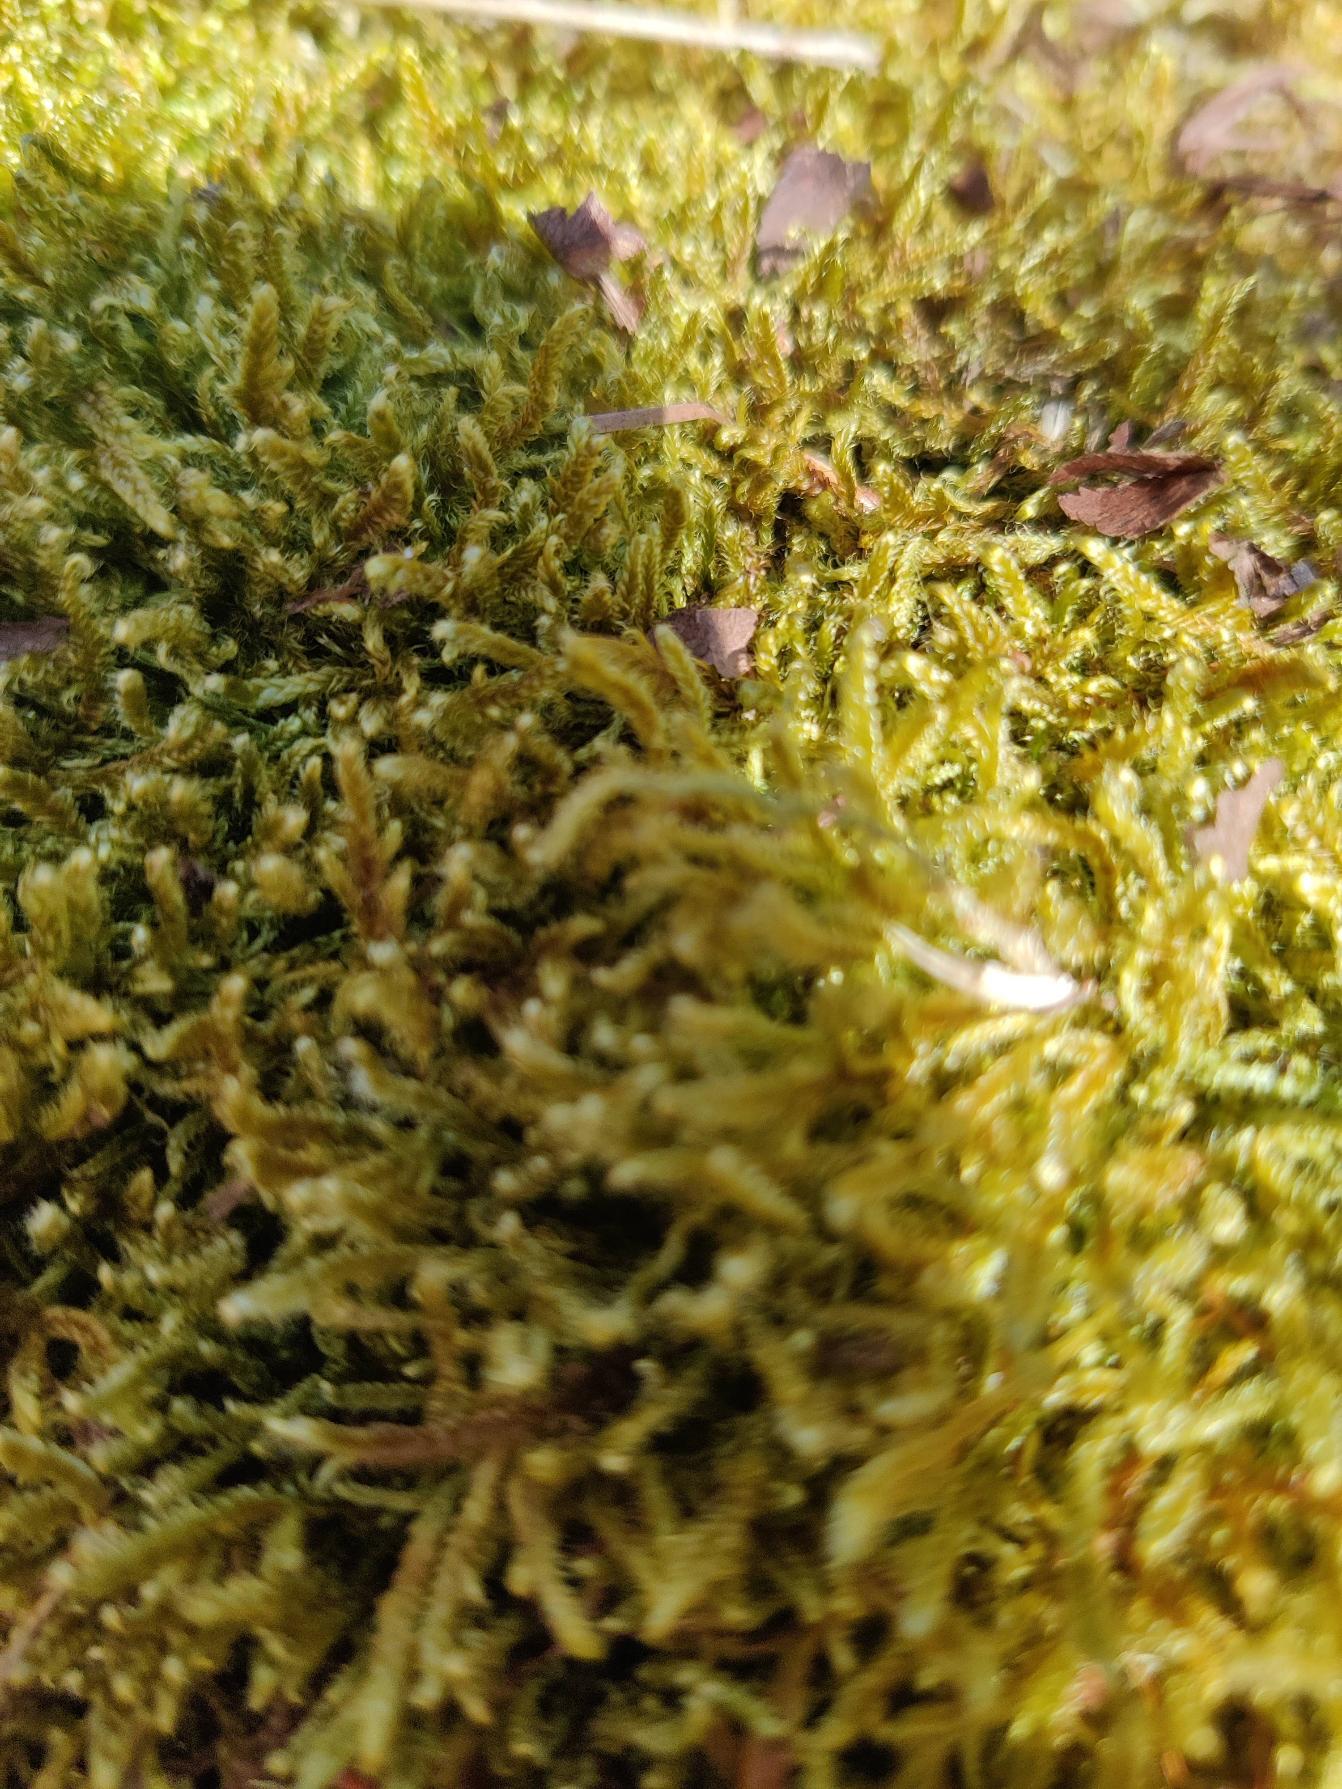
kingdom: Plantae
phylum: Bryophyta
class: Bryopsida
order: Hypnales
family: Hypnaceae
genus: Hypnum
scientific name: Hypnum cupressiforme
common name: Almindelig cypresmos
